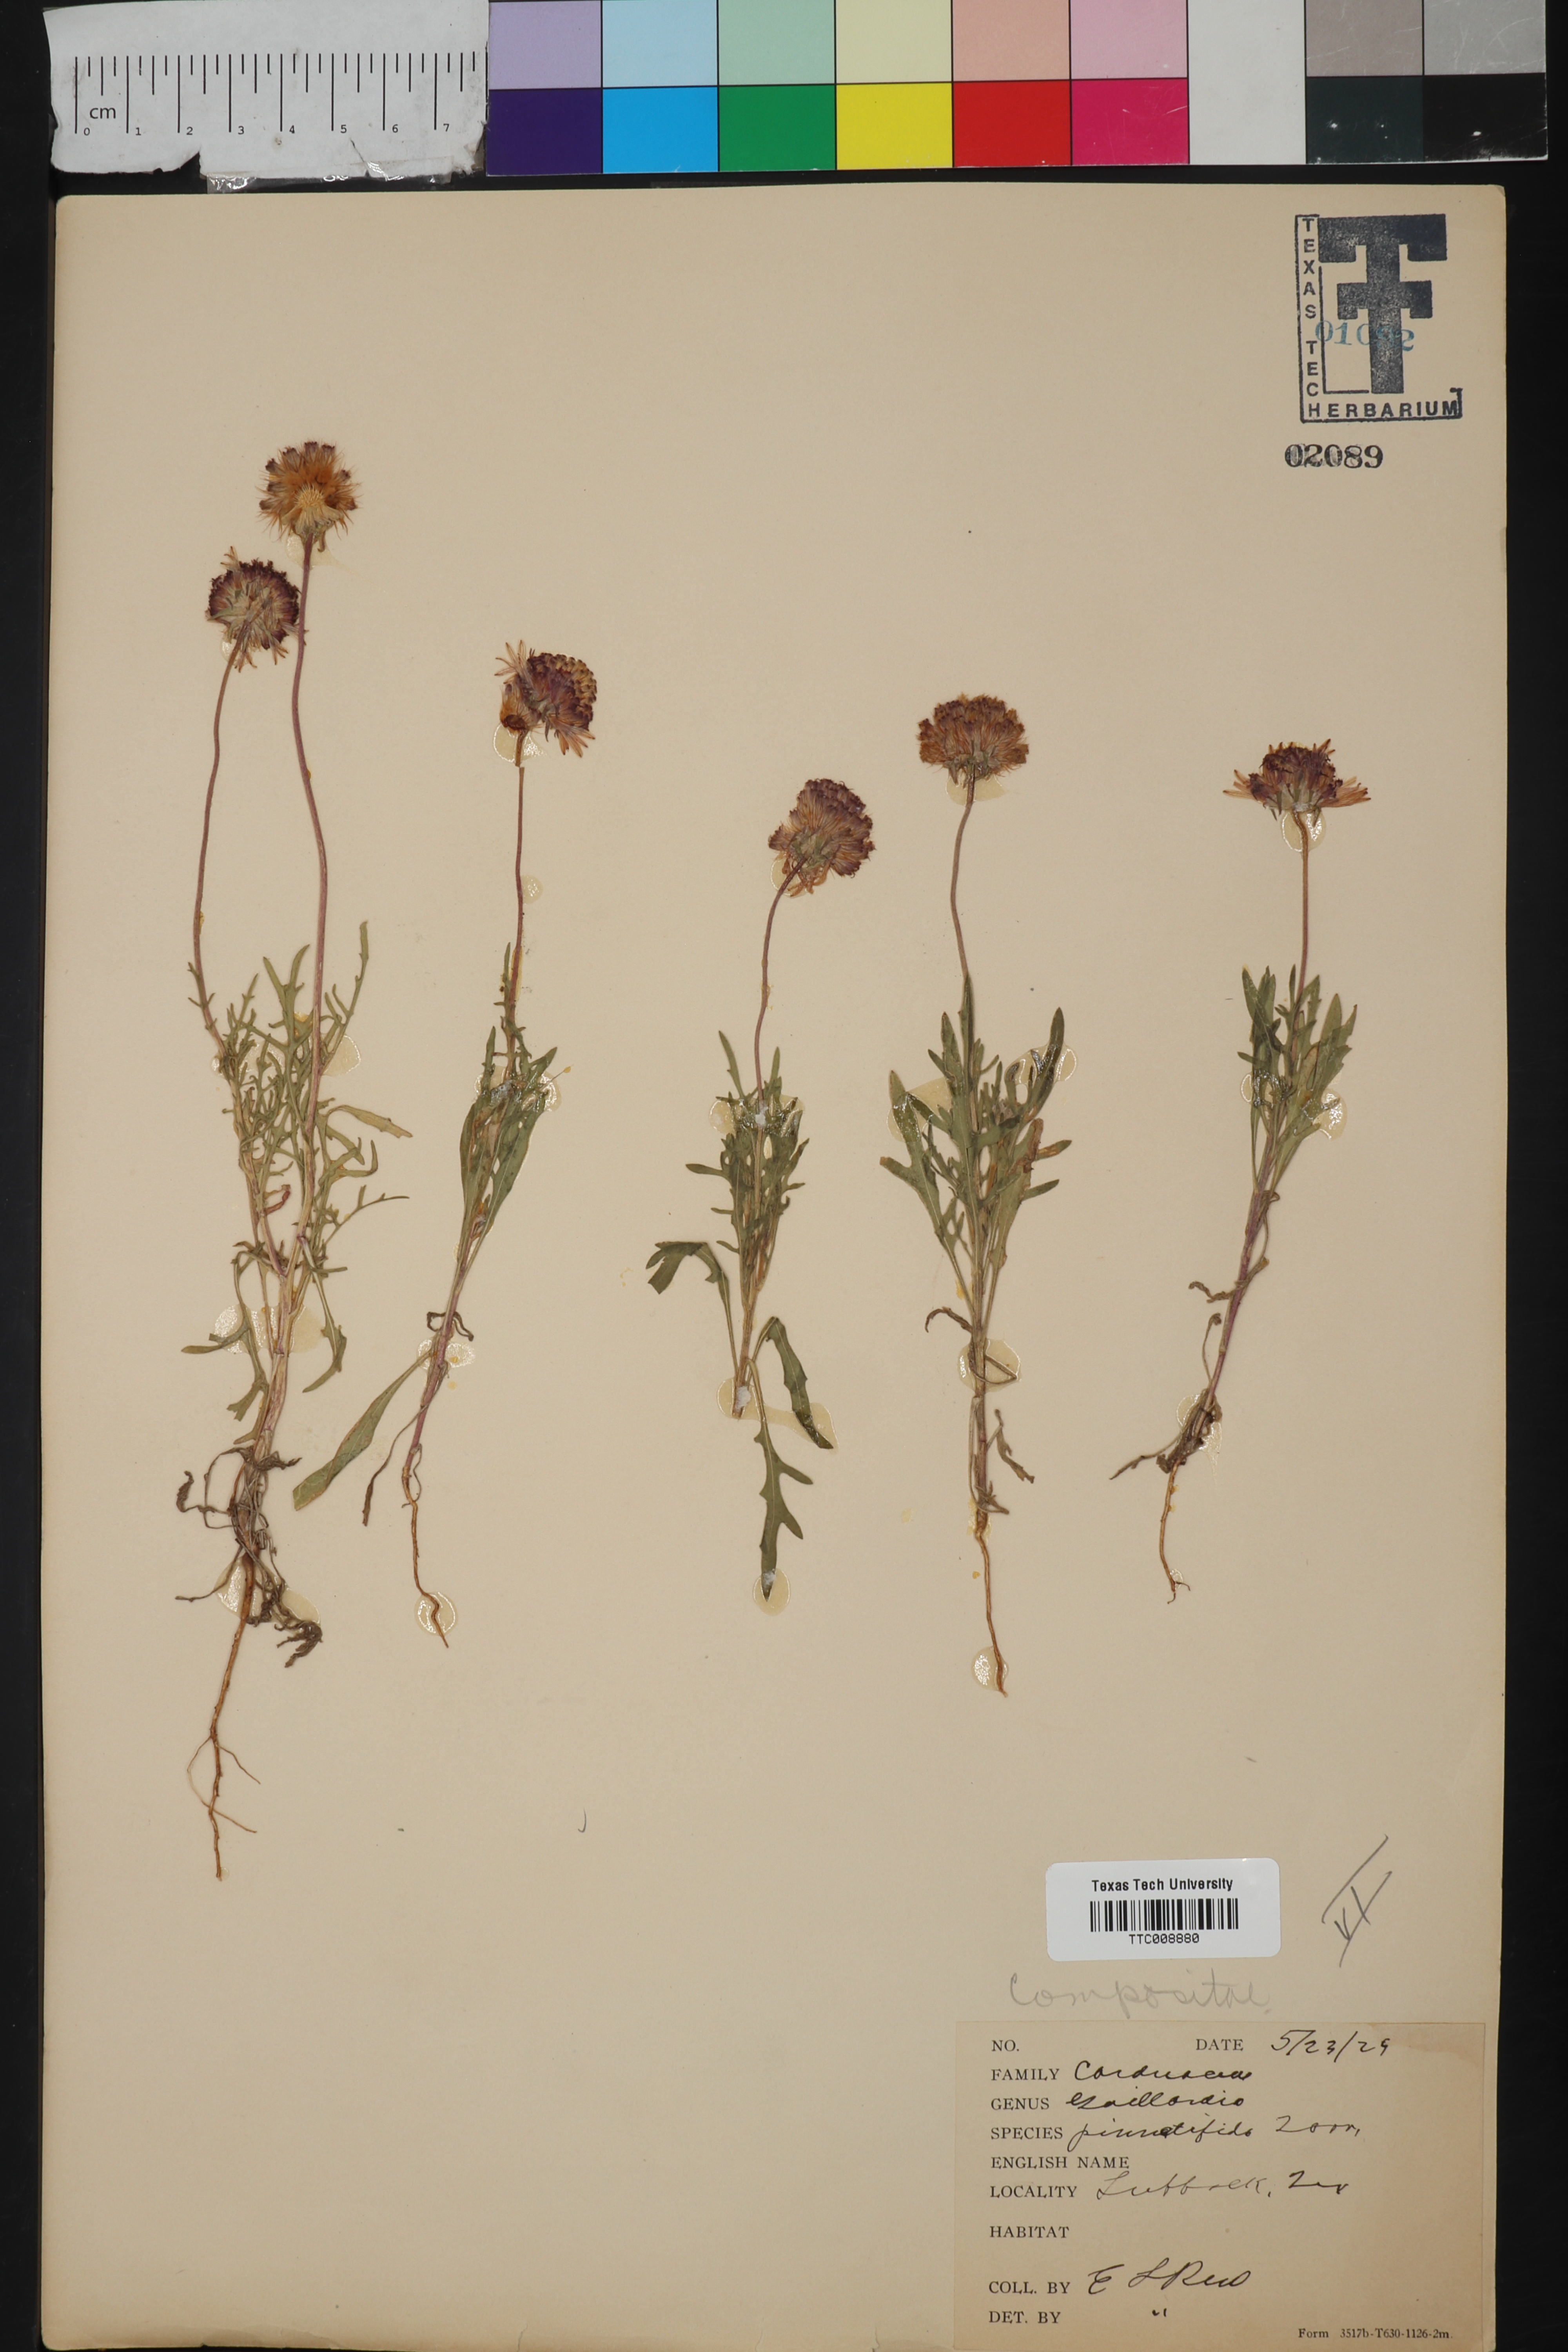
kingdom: Plantae
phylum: Tracheophyta
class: Magnoliopsida
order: Asterales
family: Asteraceae
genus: Gaillardia
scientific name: Gaillardia pinnatifida
